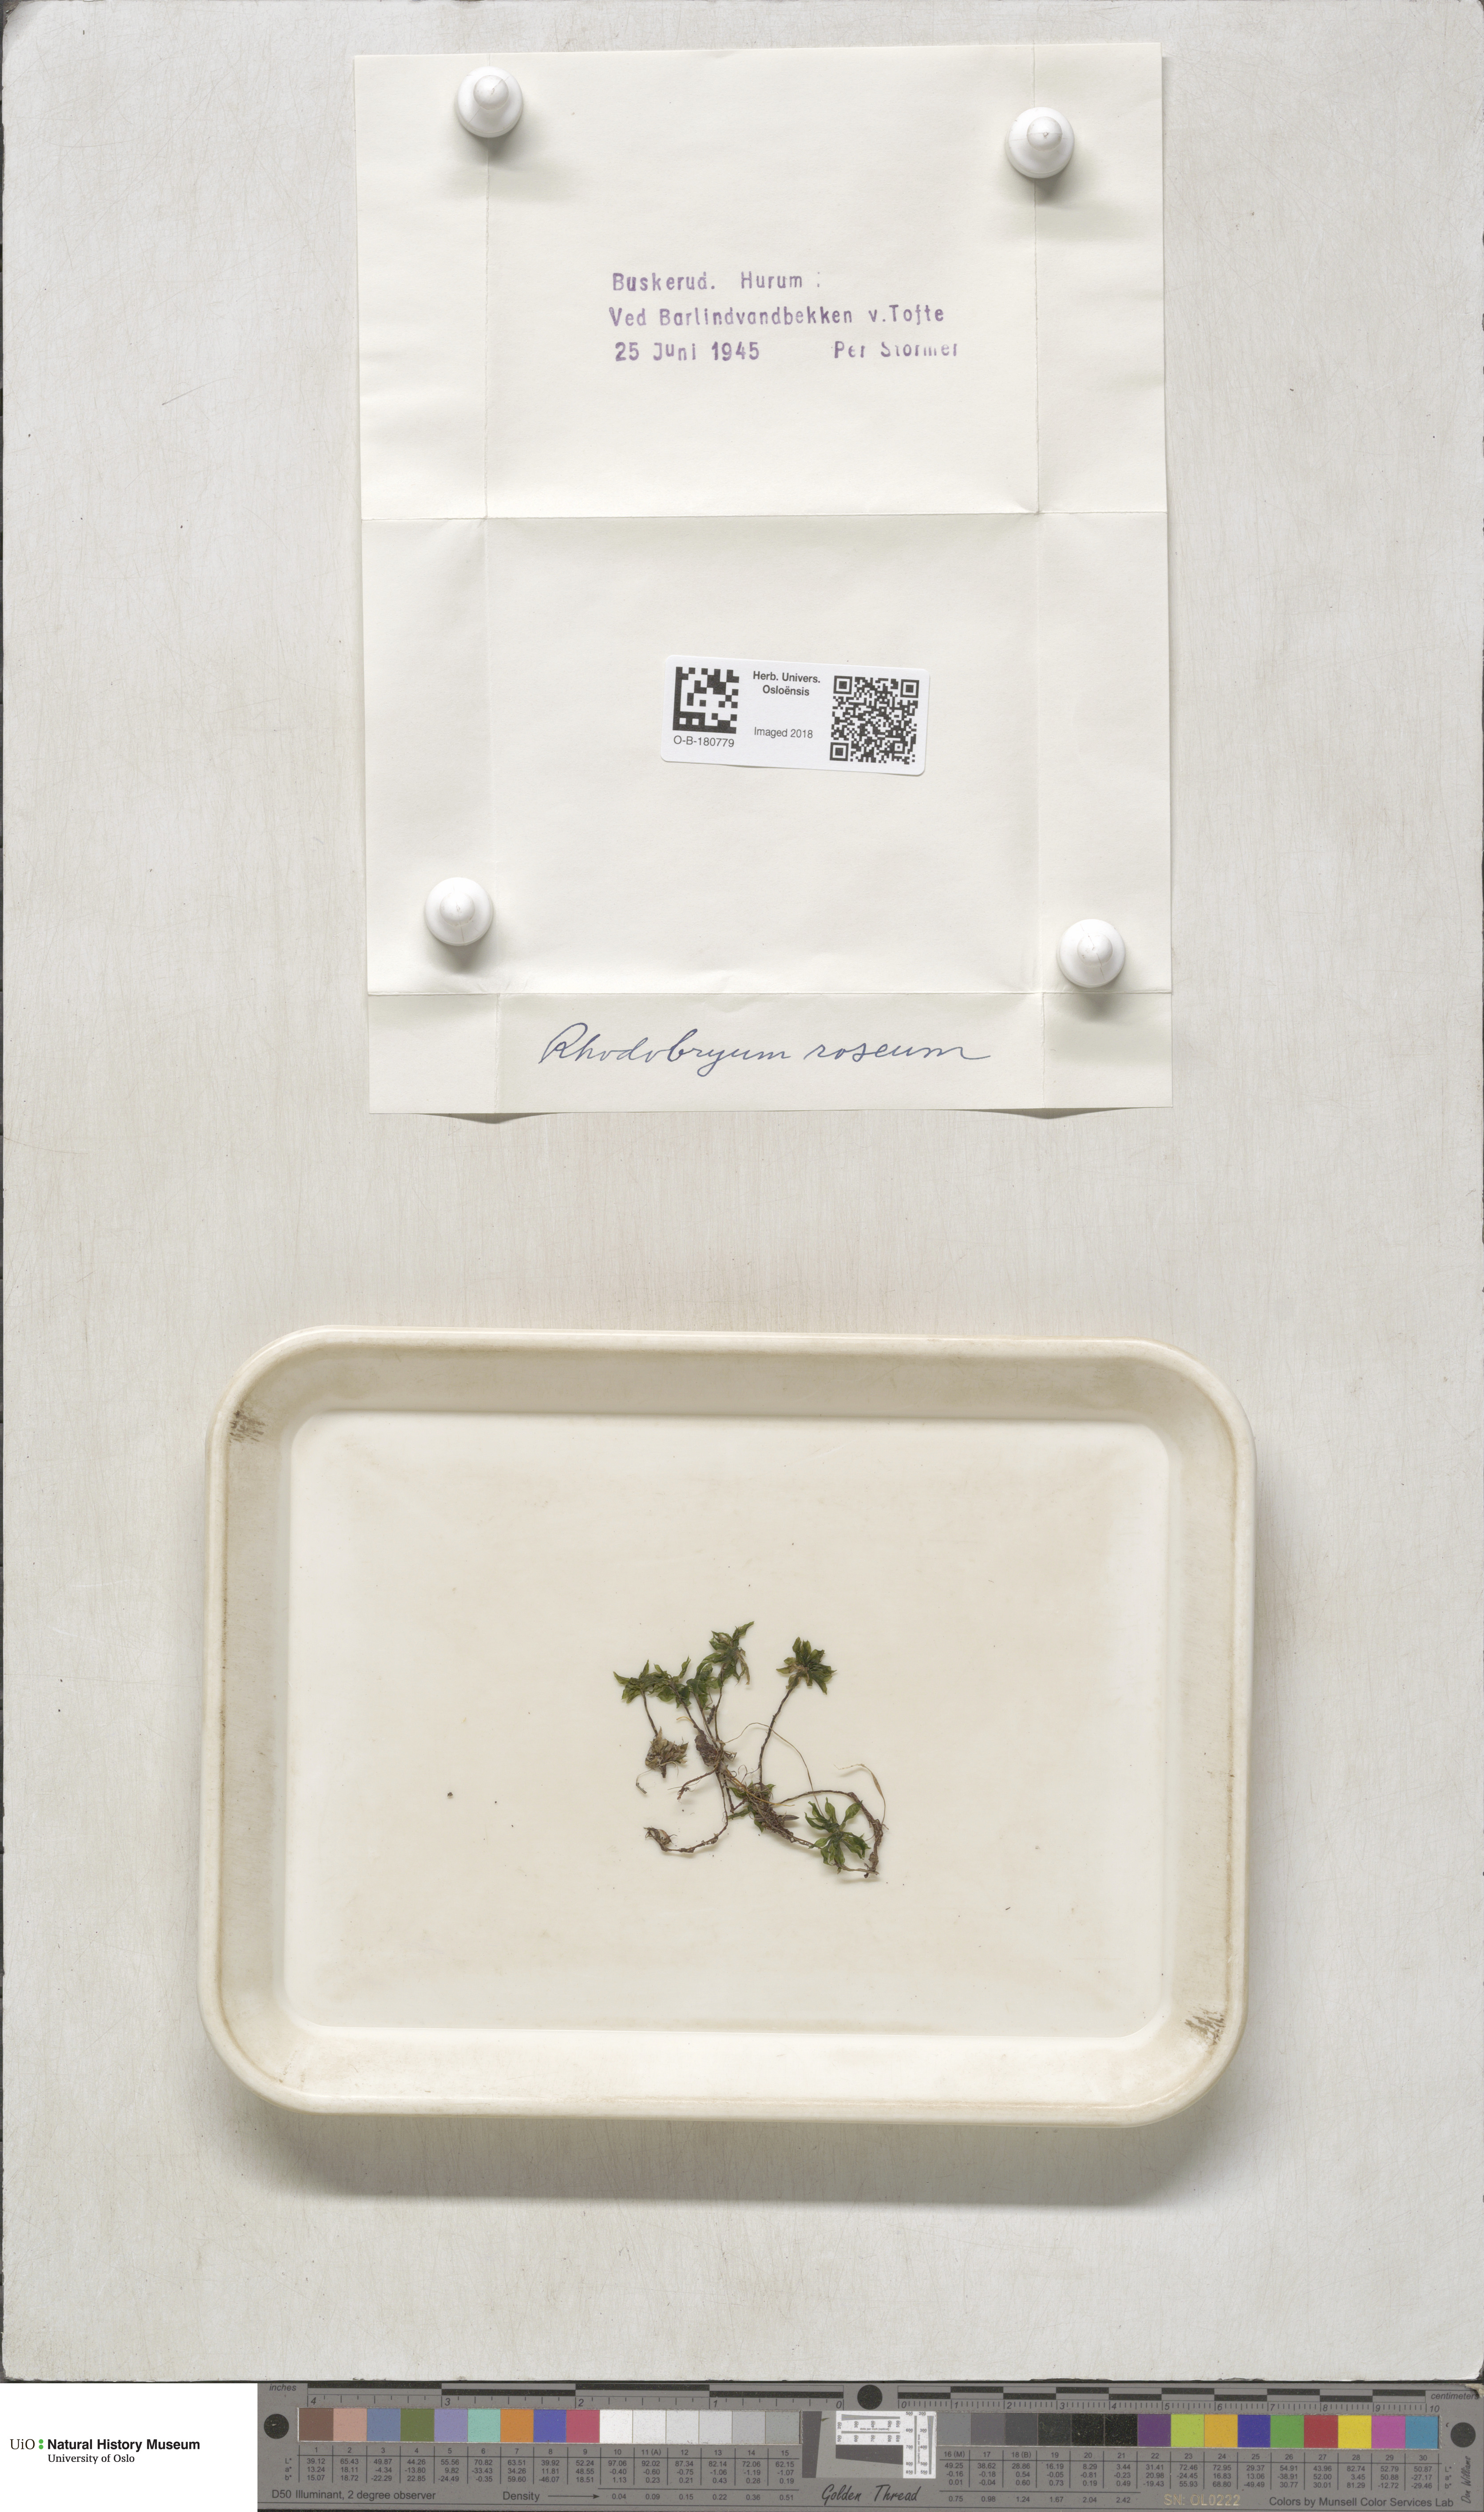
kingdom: Plantae
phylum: Bryophyta
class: Bryopsida
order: Bryales
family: Bryaceae
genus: Rhodobryum
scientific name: Rhodobryum roseum
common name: Rose-moss
